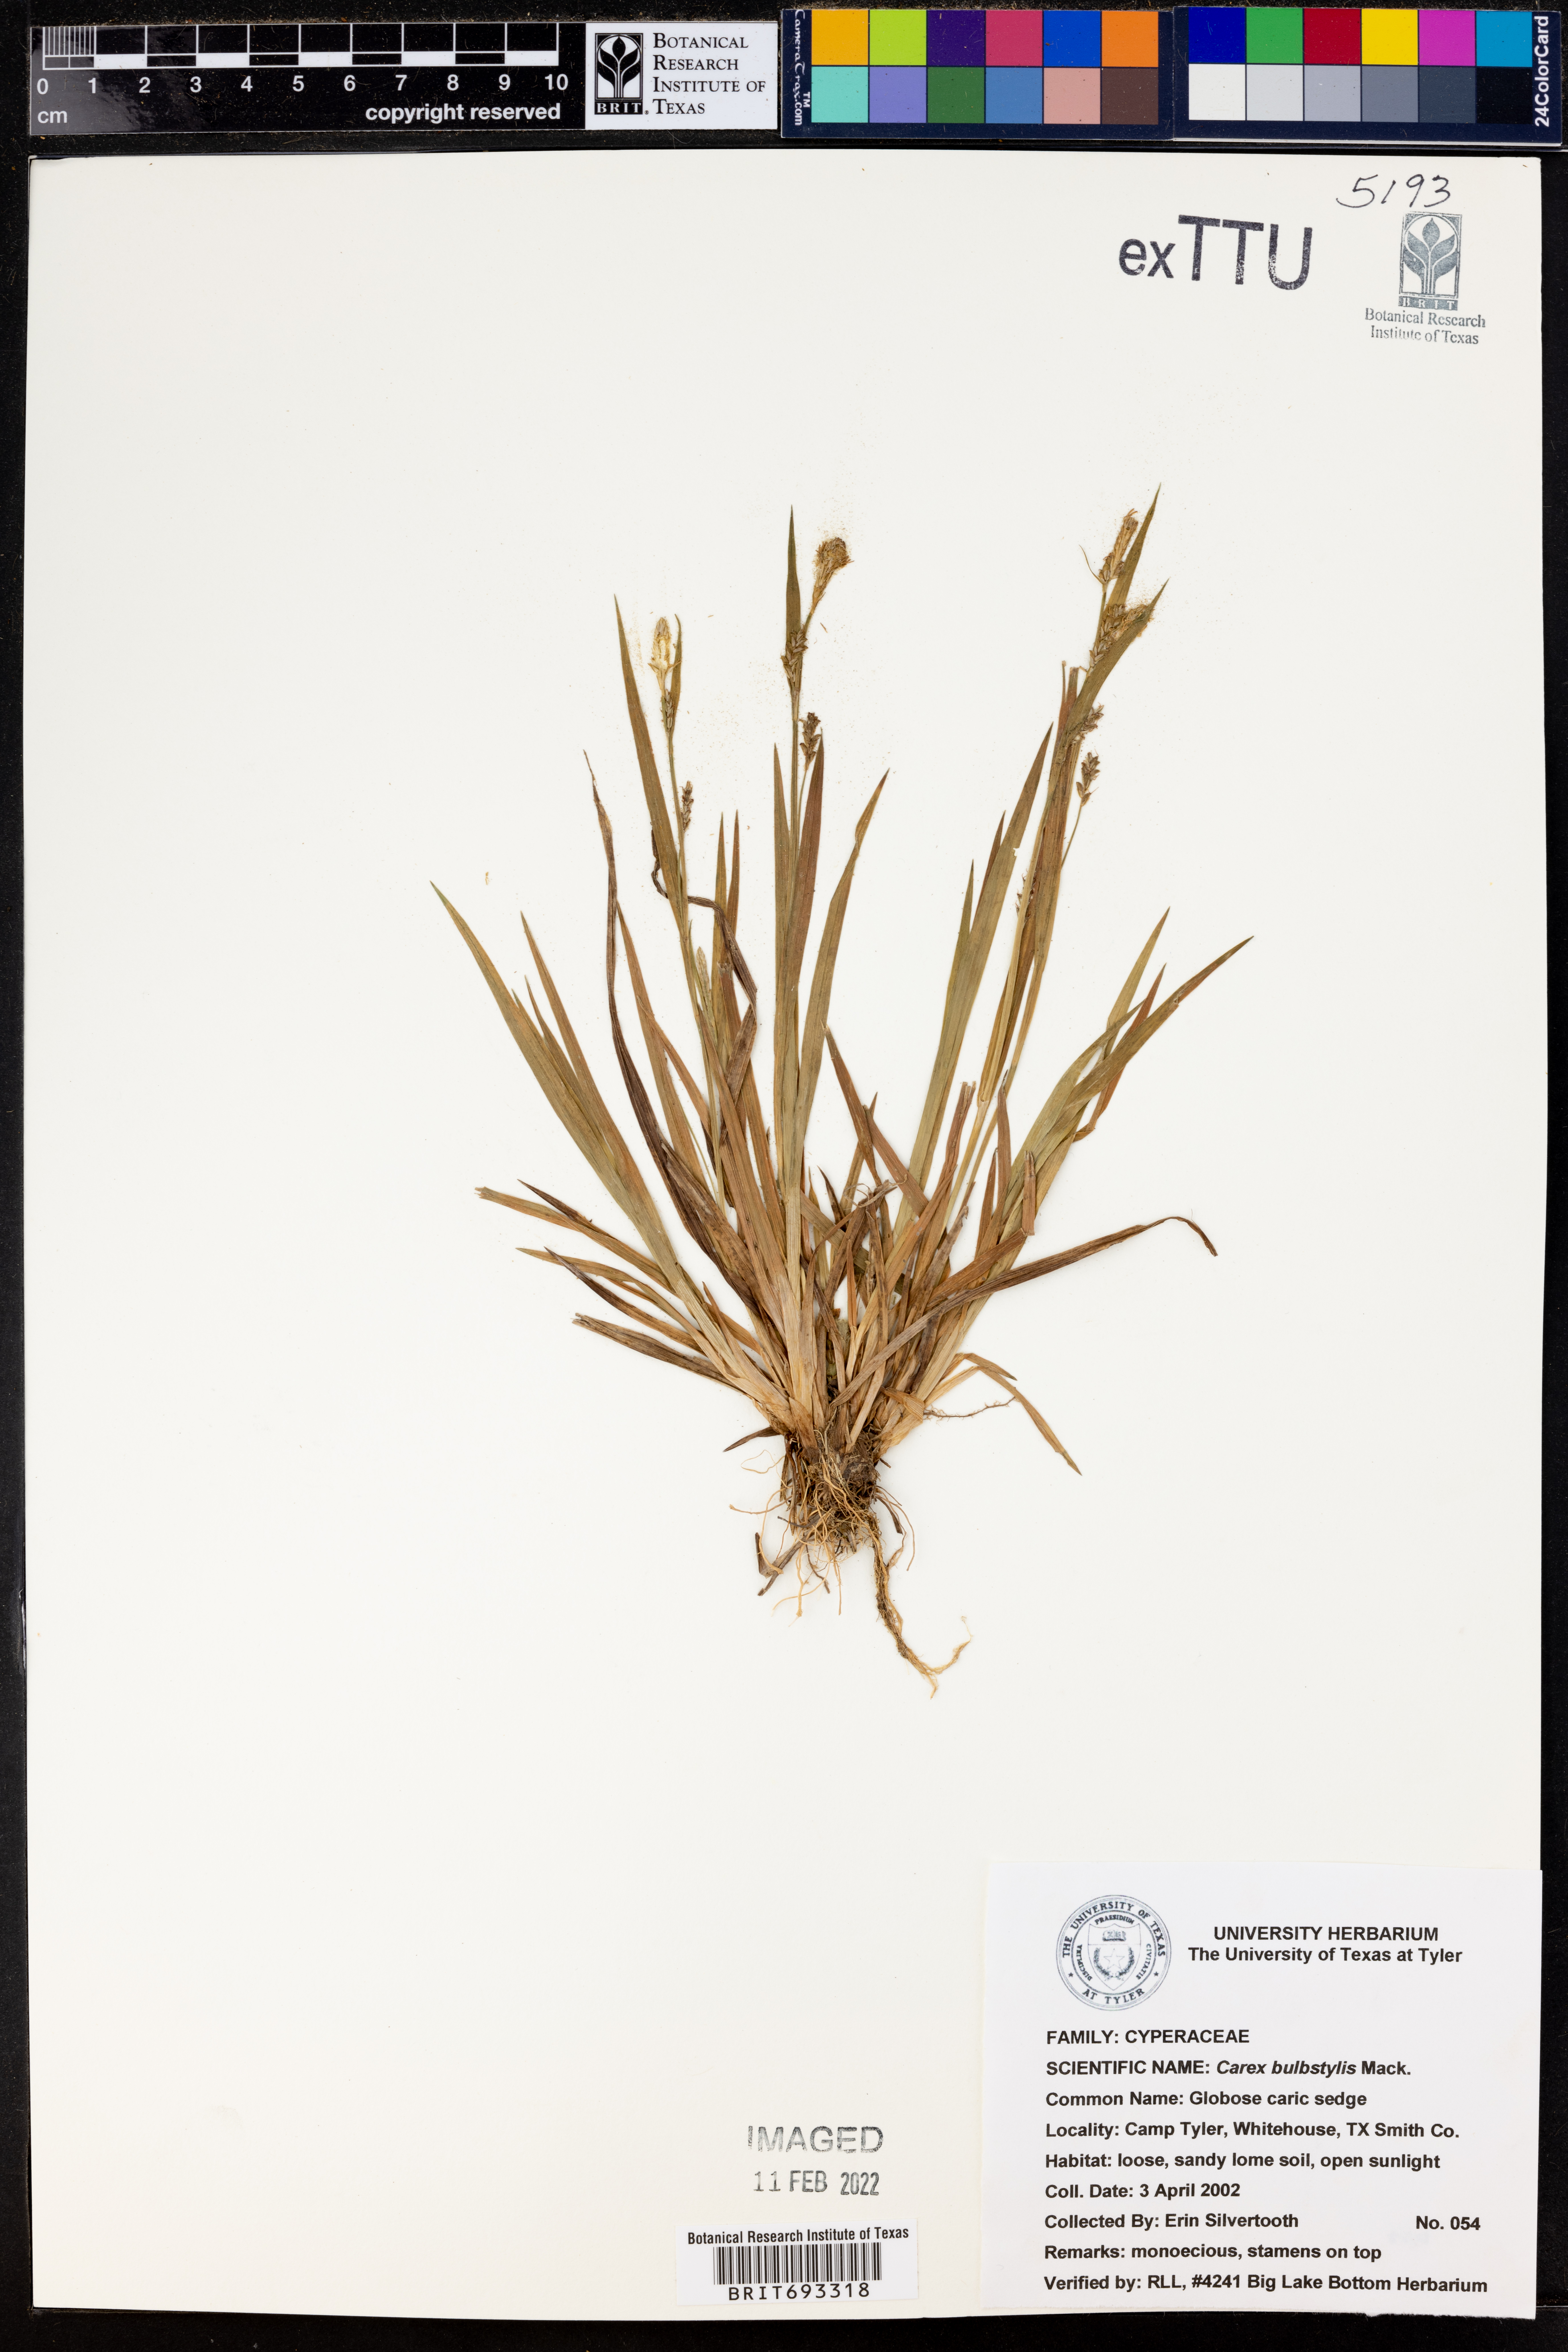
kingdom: Plantae
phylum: Tracheophyta
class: Liliopsida
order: Poales
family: Cyperaceae
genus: Carex
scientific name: Carex bulbostylis
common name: Eastern narrowleaf sedge
